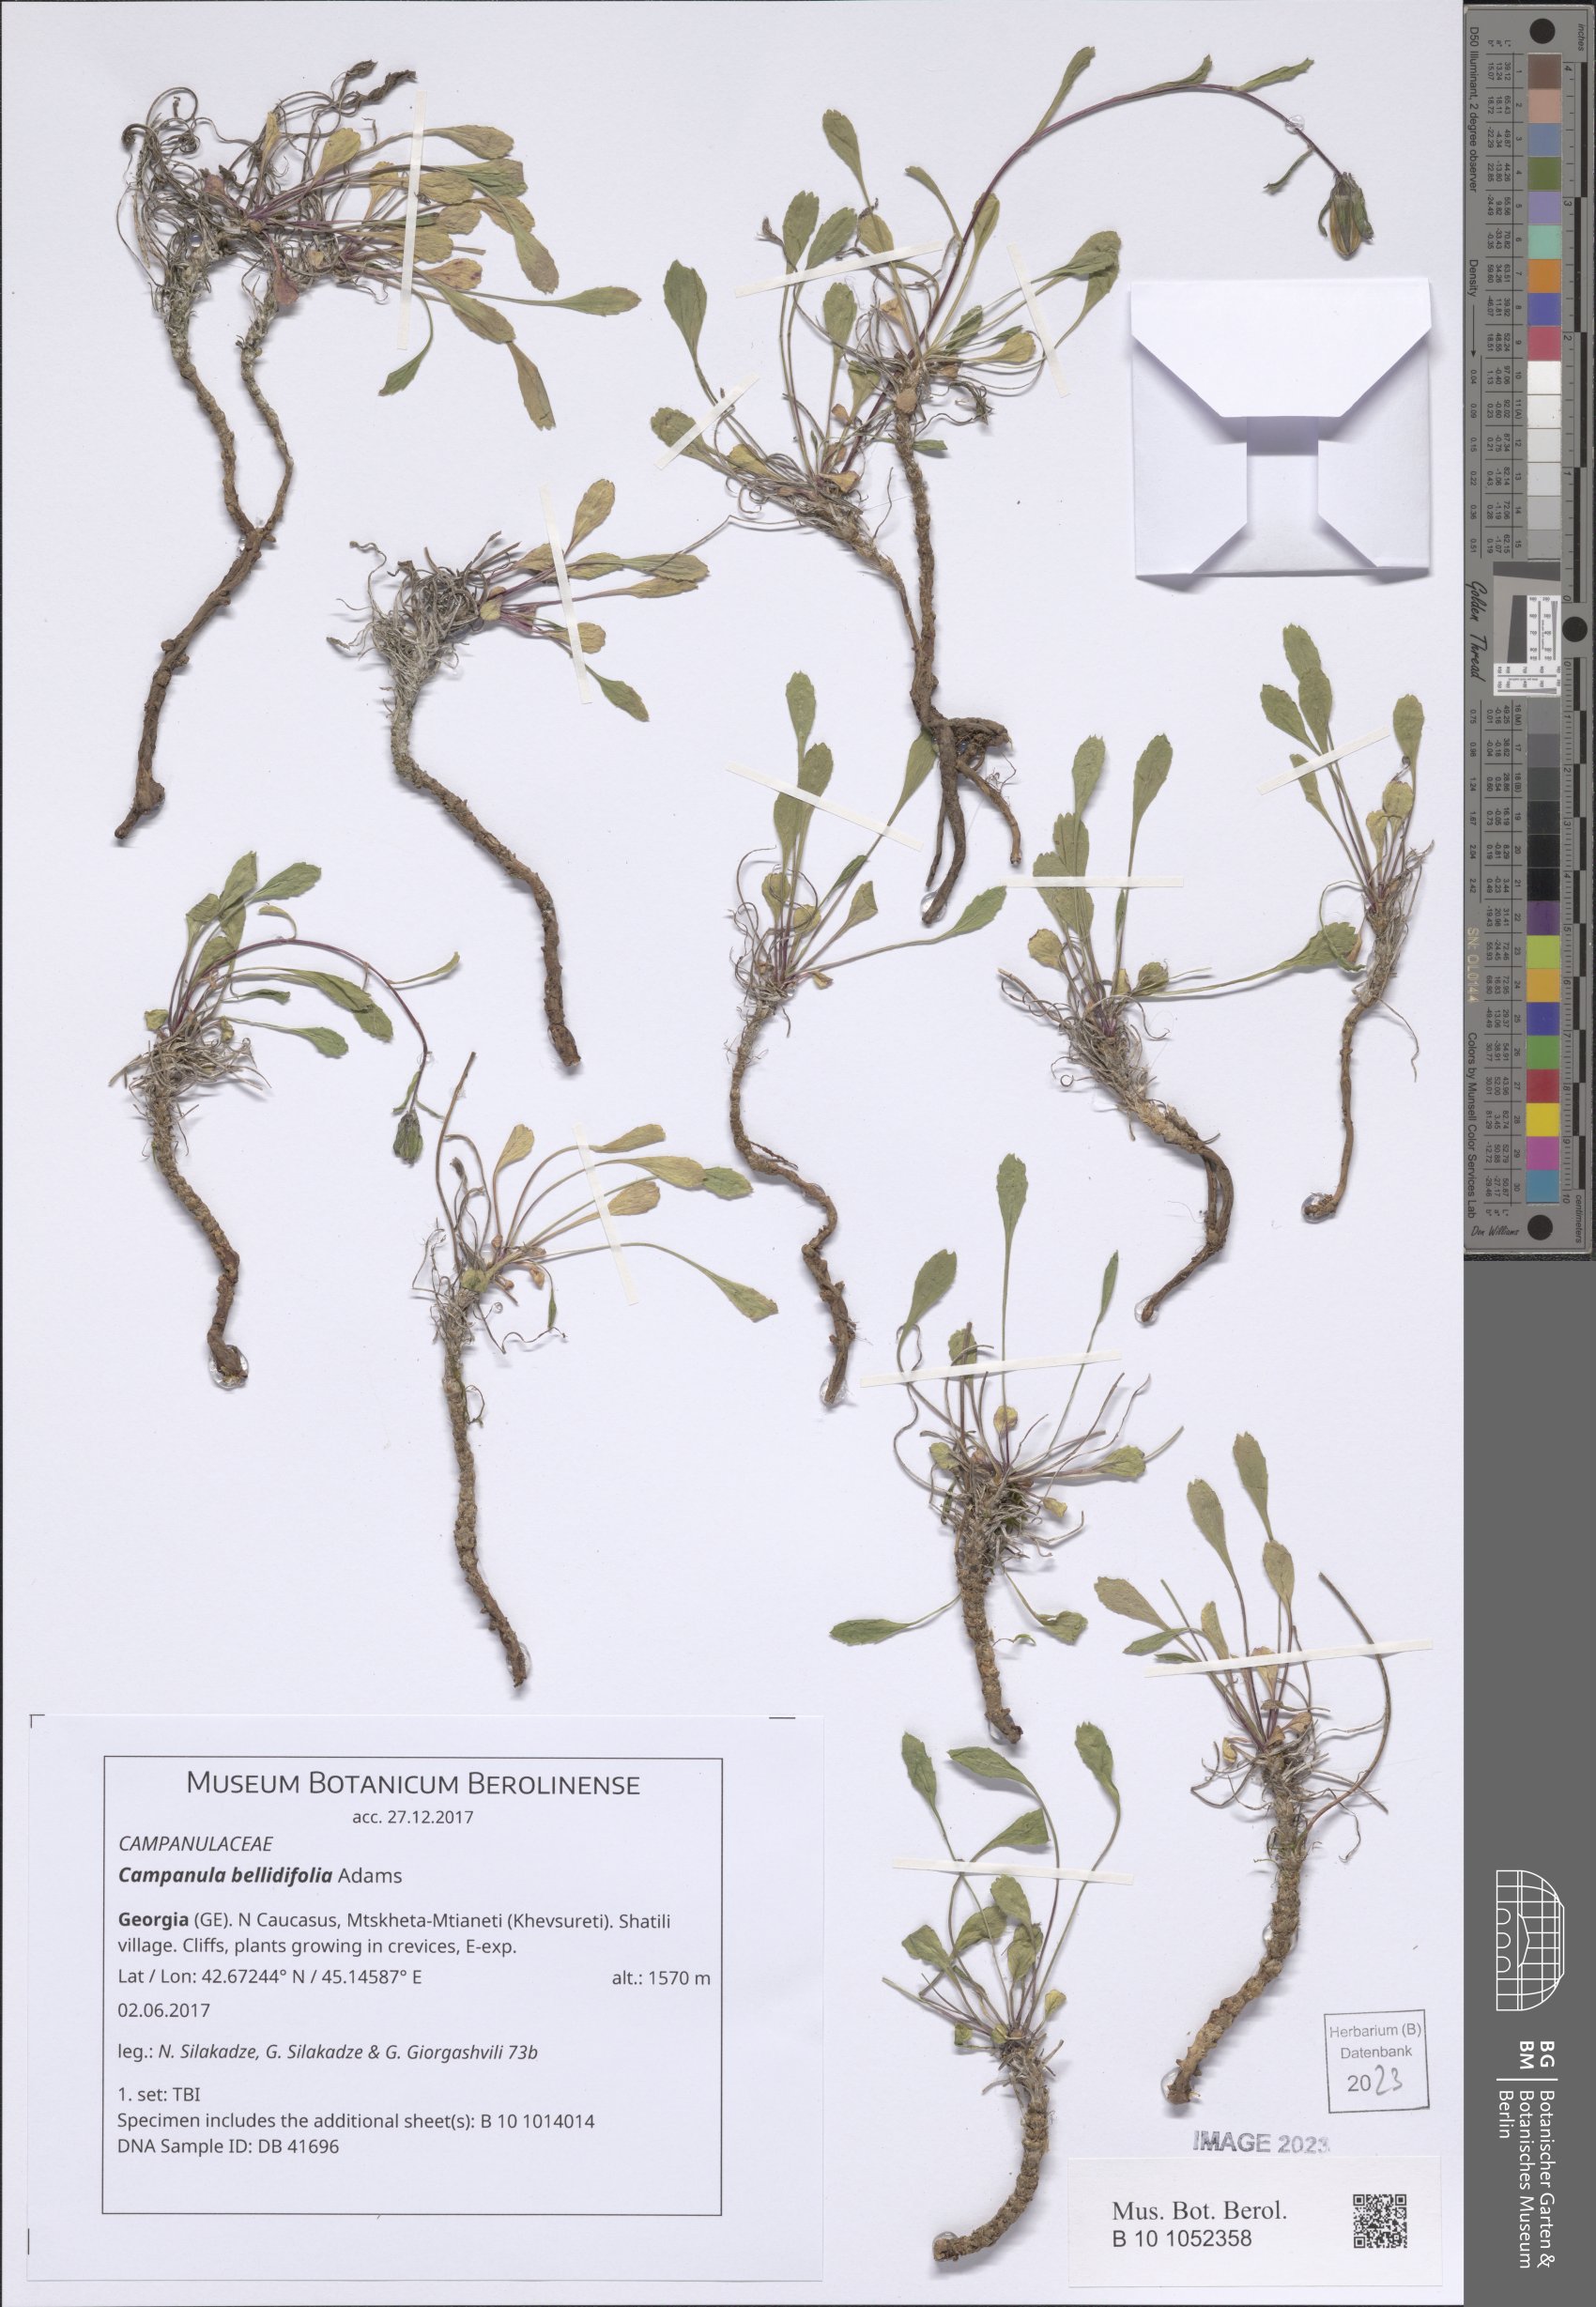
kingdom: Plantae
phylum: Tracheophyta
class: Magnoliopsida
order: Asterales
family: Campanulaceae
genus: Campanula
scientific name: Campanula bellidifolia
